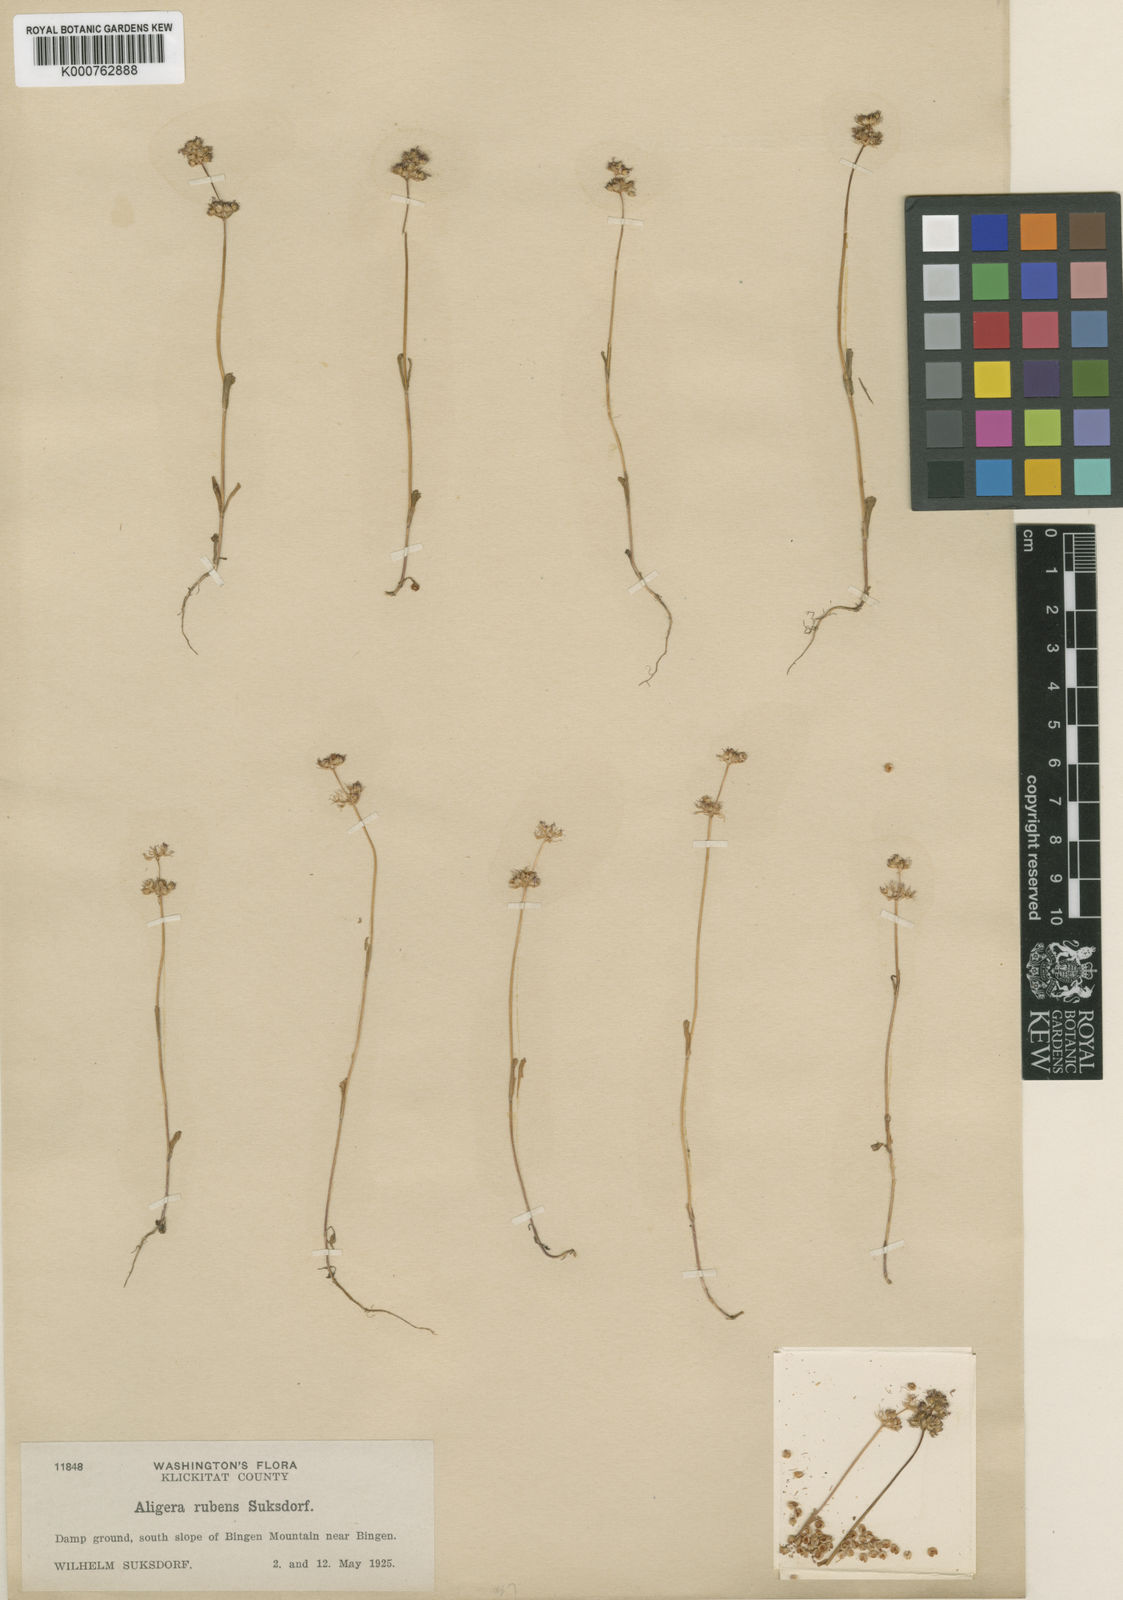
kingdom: Plantae
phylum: Tracheophyta
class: Magnoliopsida
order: Dipsacales
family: Caprifoliaceae
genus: Plectritis
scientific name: Plectritis ciliosa
